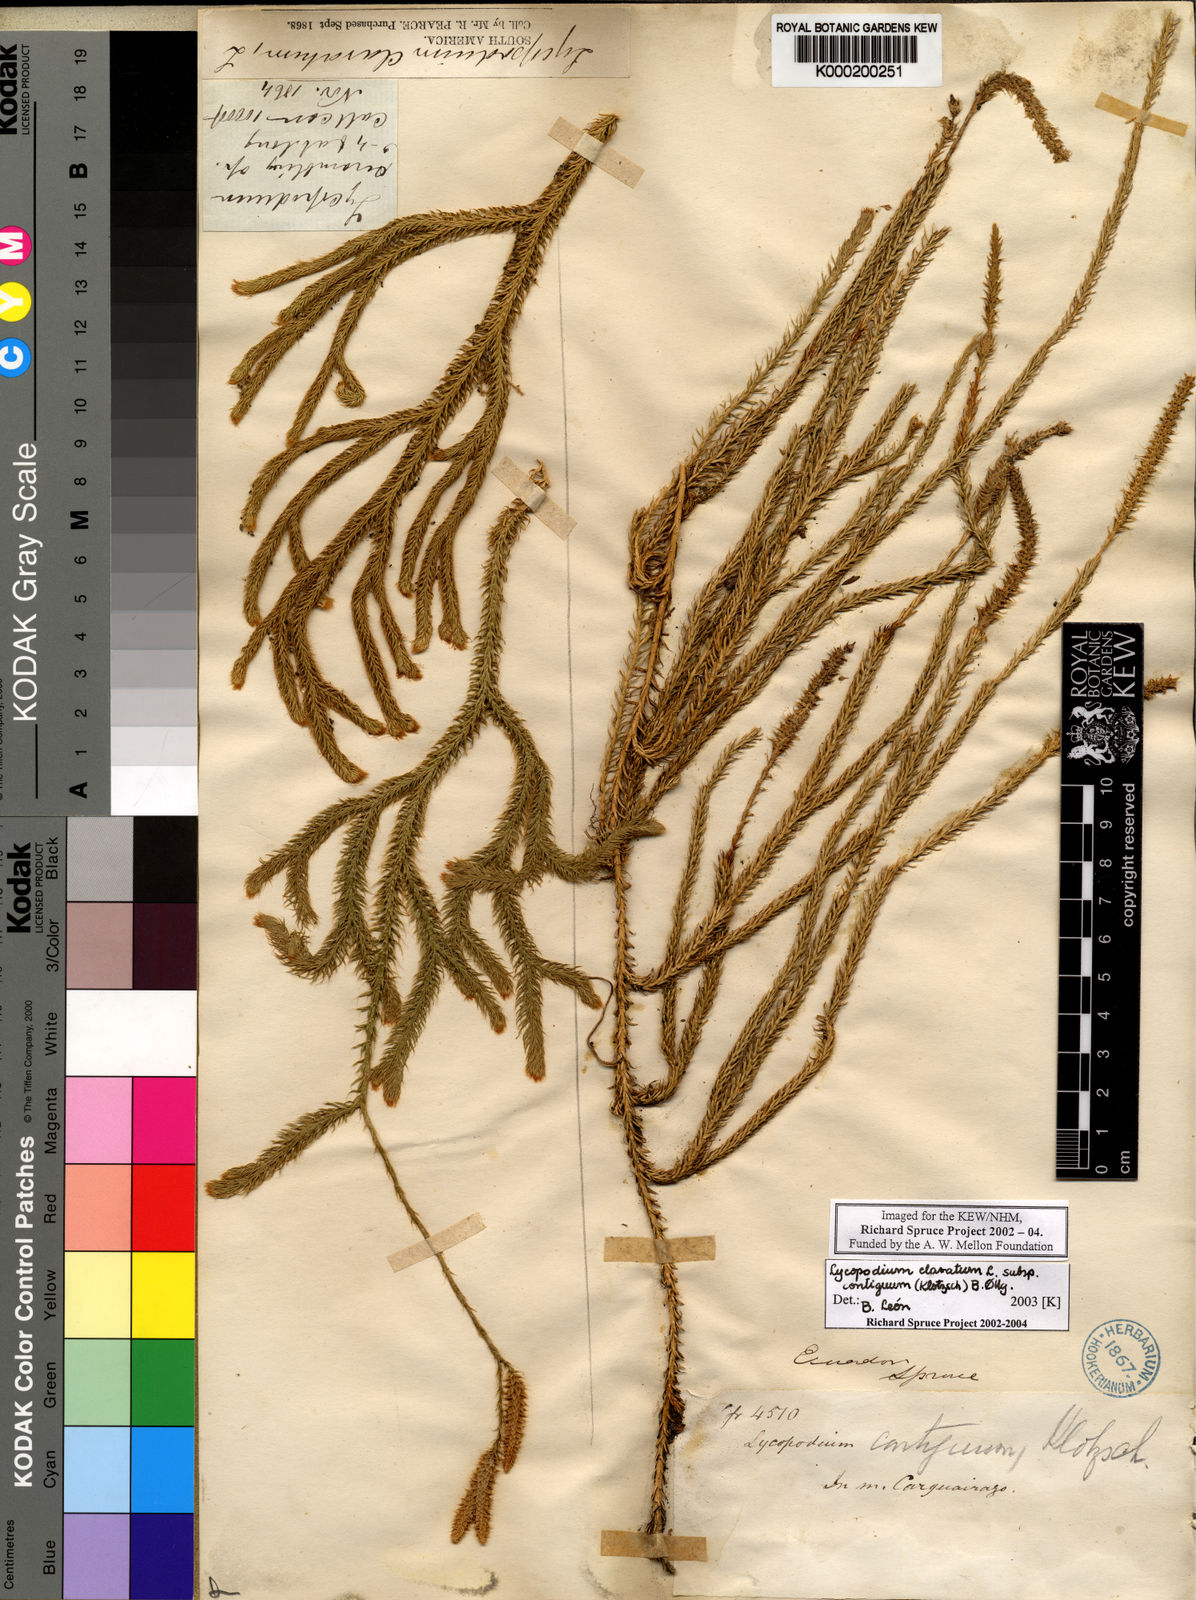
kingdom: Plantae
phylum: Tracheophyta
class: Lycopodiopsida
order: Lycopodiales
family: Lycopodiaceae
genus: Lycopodium
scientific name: Lycopodium clavatum
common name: Stag's-horn clubmoss
